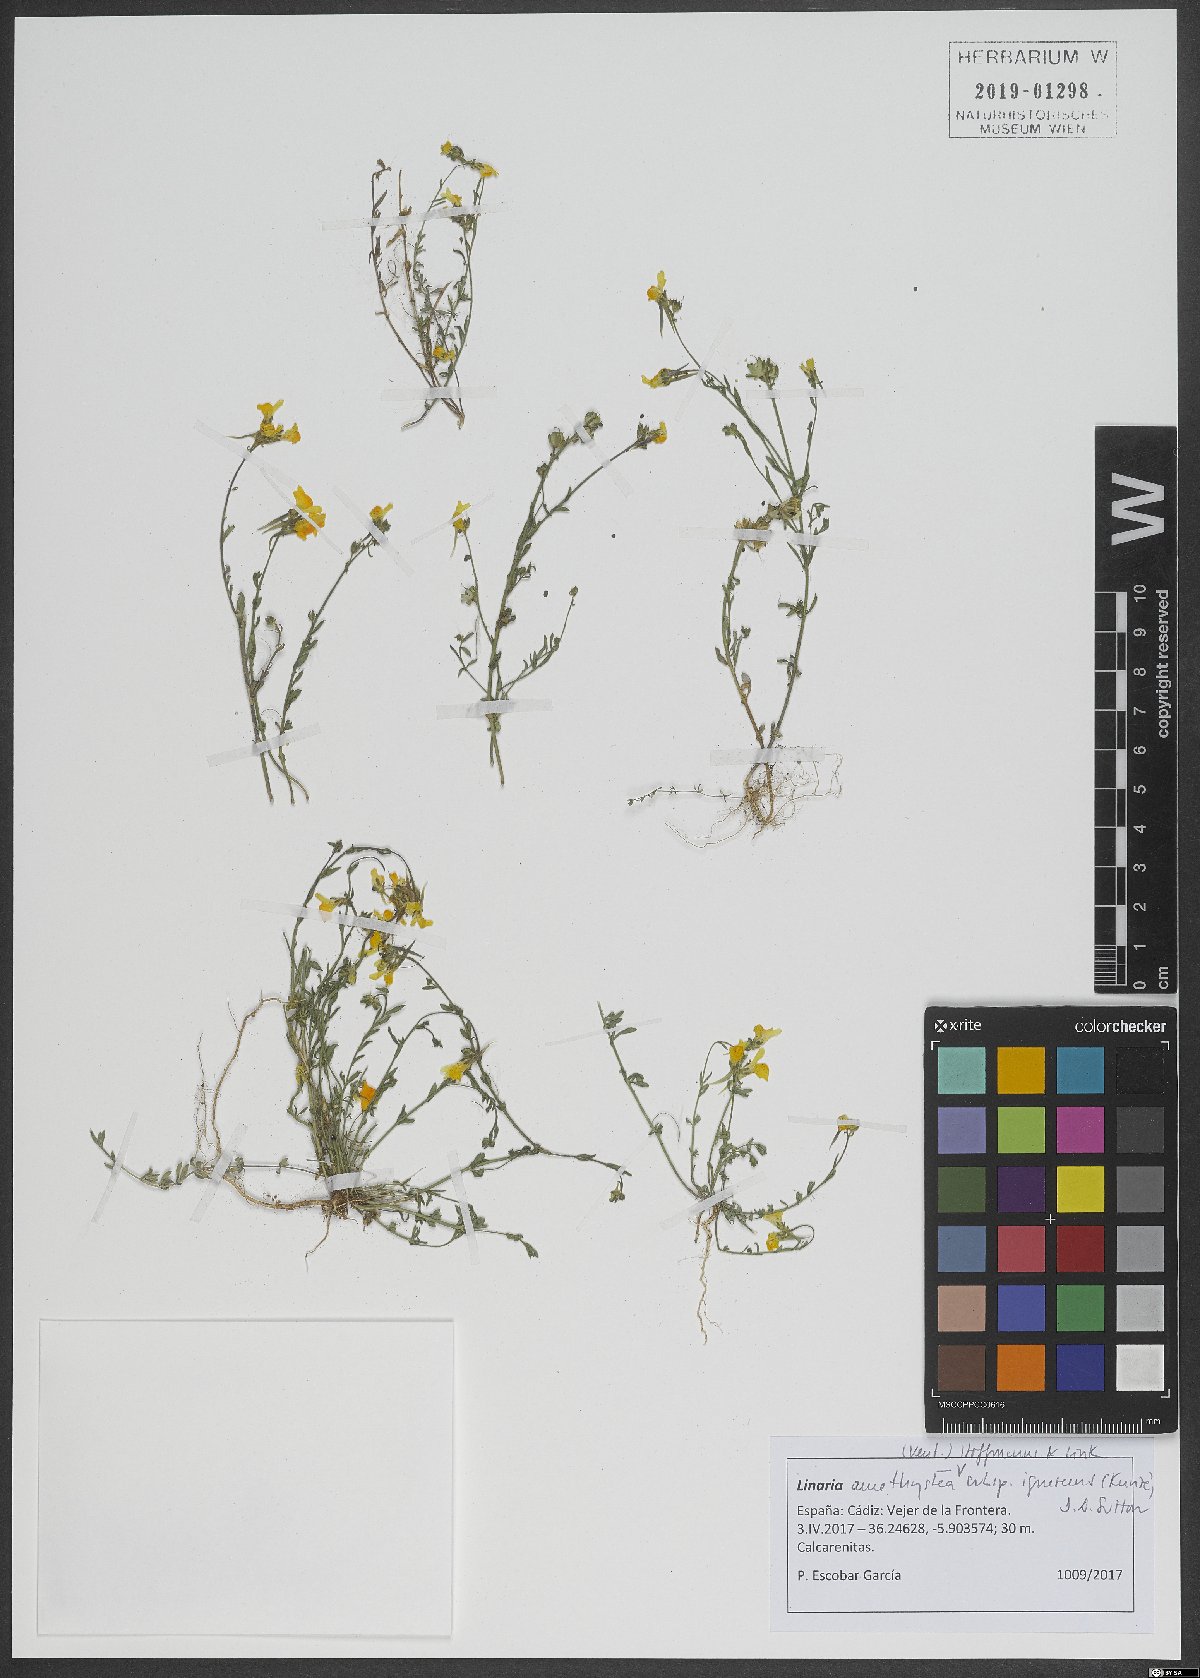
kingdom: Plantae
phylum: Tracheophyta
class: Magnoliopsida
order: Lamiales
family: Plantaginaceae
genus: Linaria
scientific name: Linaria amethystea
